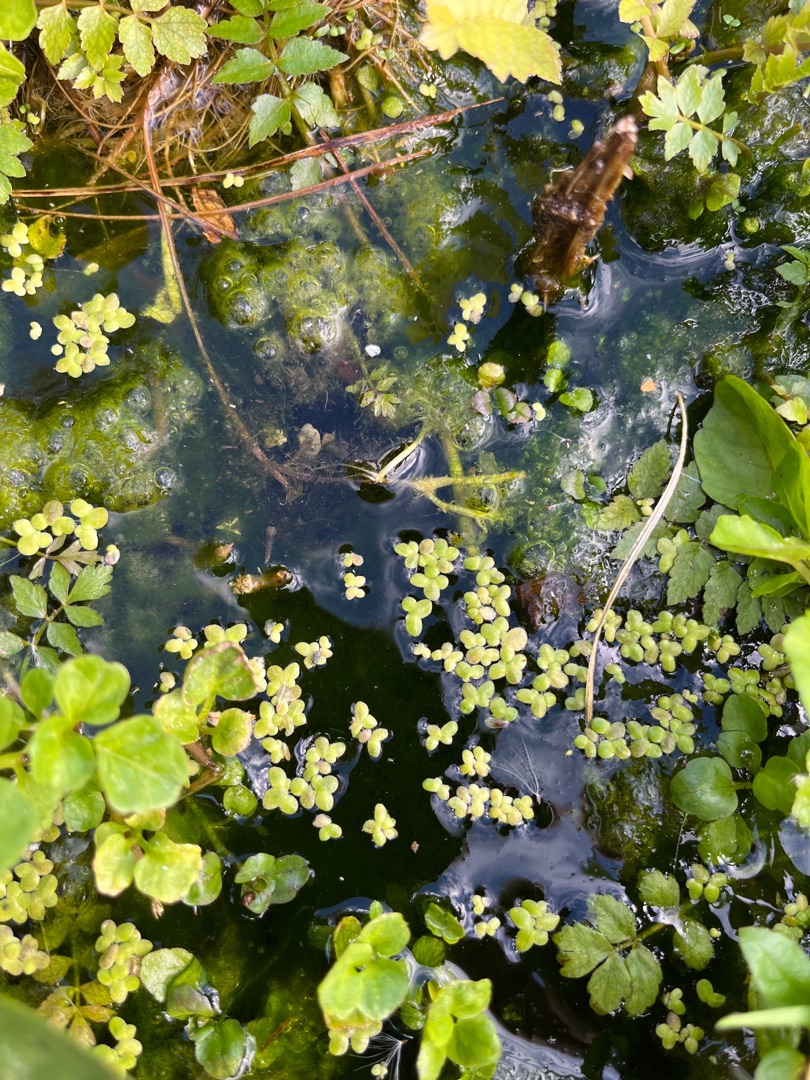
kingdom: Plantae
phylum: Tracheophyta
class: Liliopsida
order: Alismatales
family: Araceae
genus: Lemna
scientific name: Lemna minor
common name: Liden andemad
